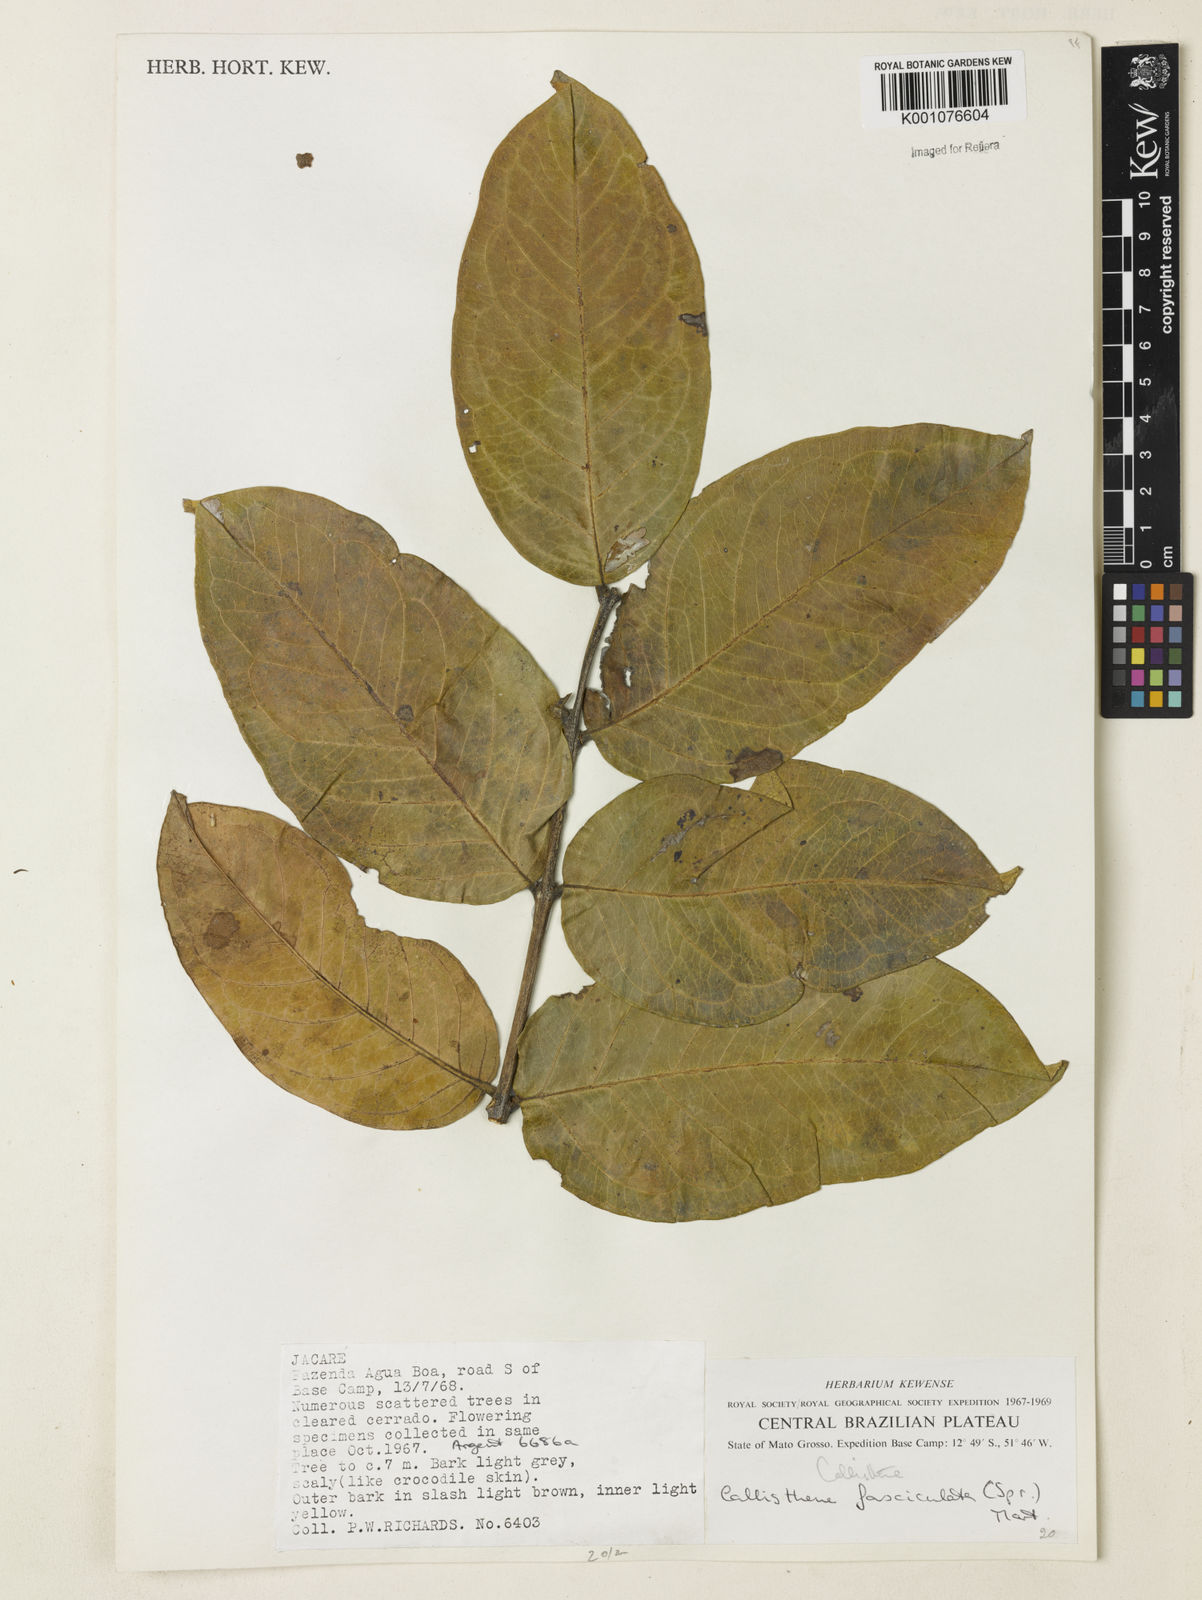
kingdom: Plantae
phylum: Tracheophyta
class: Magnoliopsida
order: Myrtales
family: Vochysiaceae
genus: Callisthene
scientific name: Callisthene fasciculata
